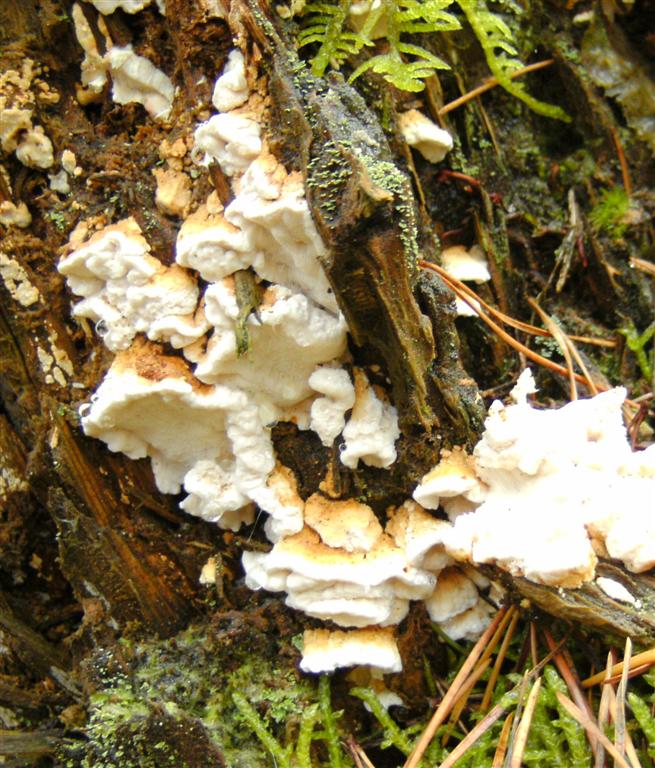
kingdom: Fungi
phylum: Basidiomycota
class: Agaricomycetes
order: Polyporales
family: Fomitopsidaceae
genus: Neoantrodia
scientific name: Neoantrodia serialis
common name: række-sejporesvamp
